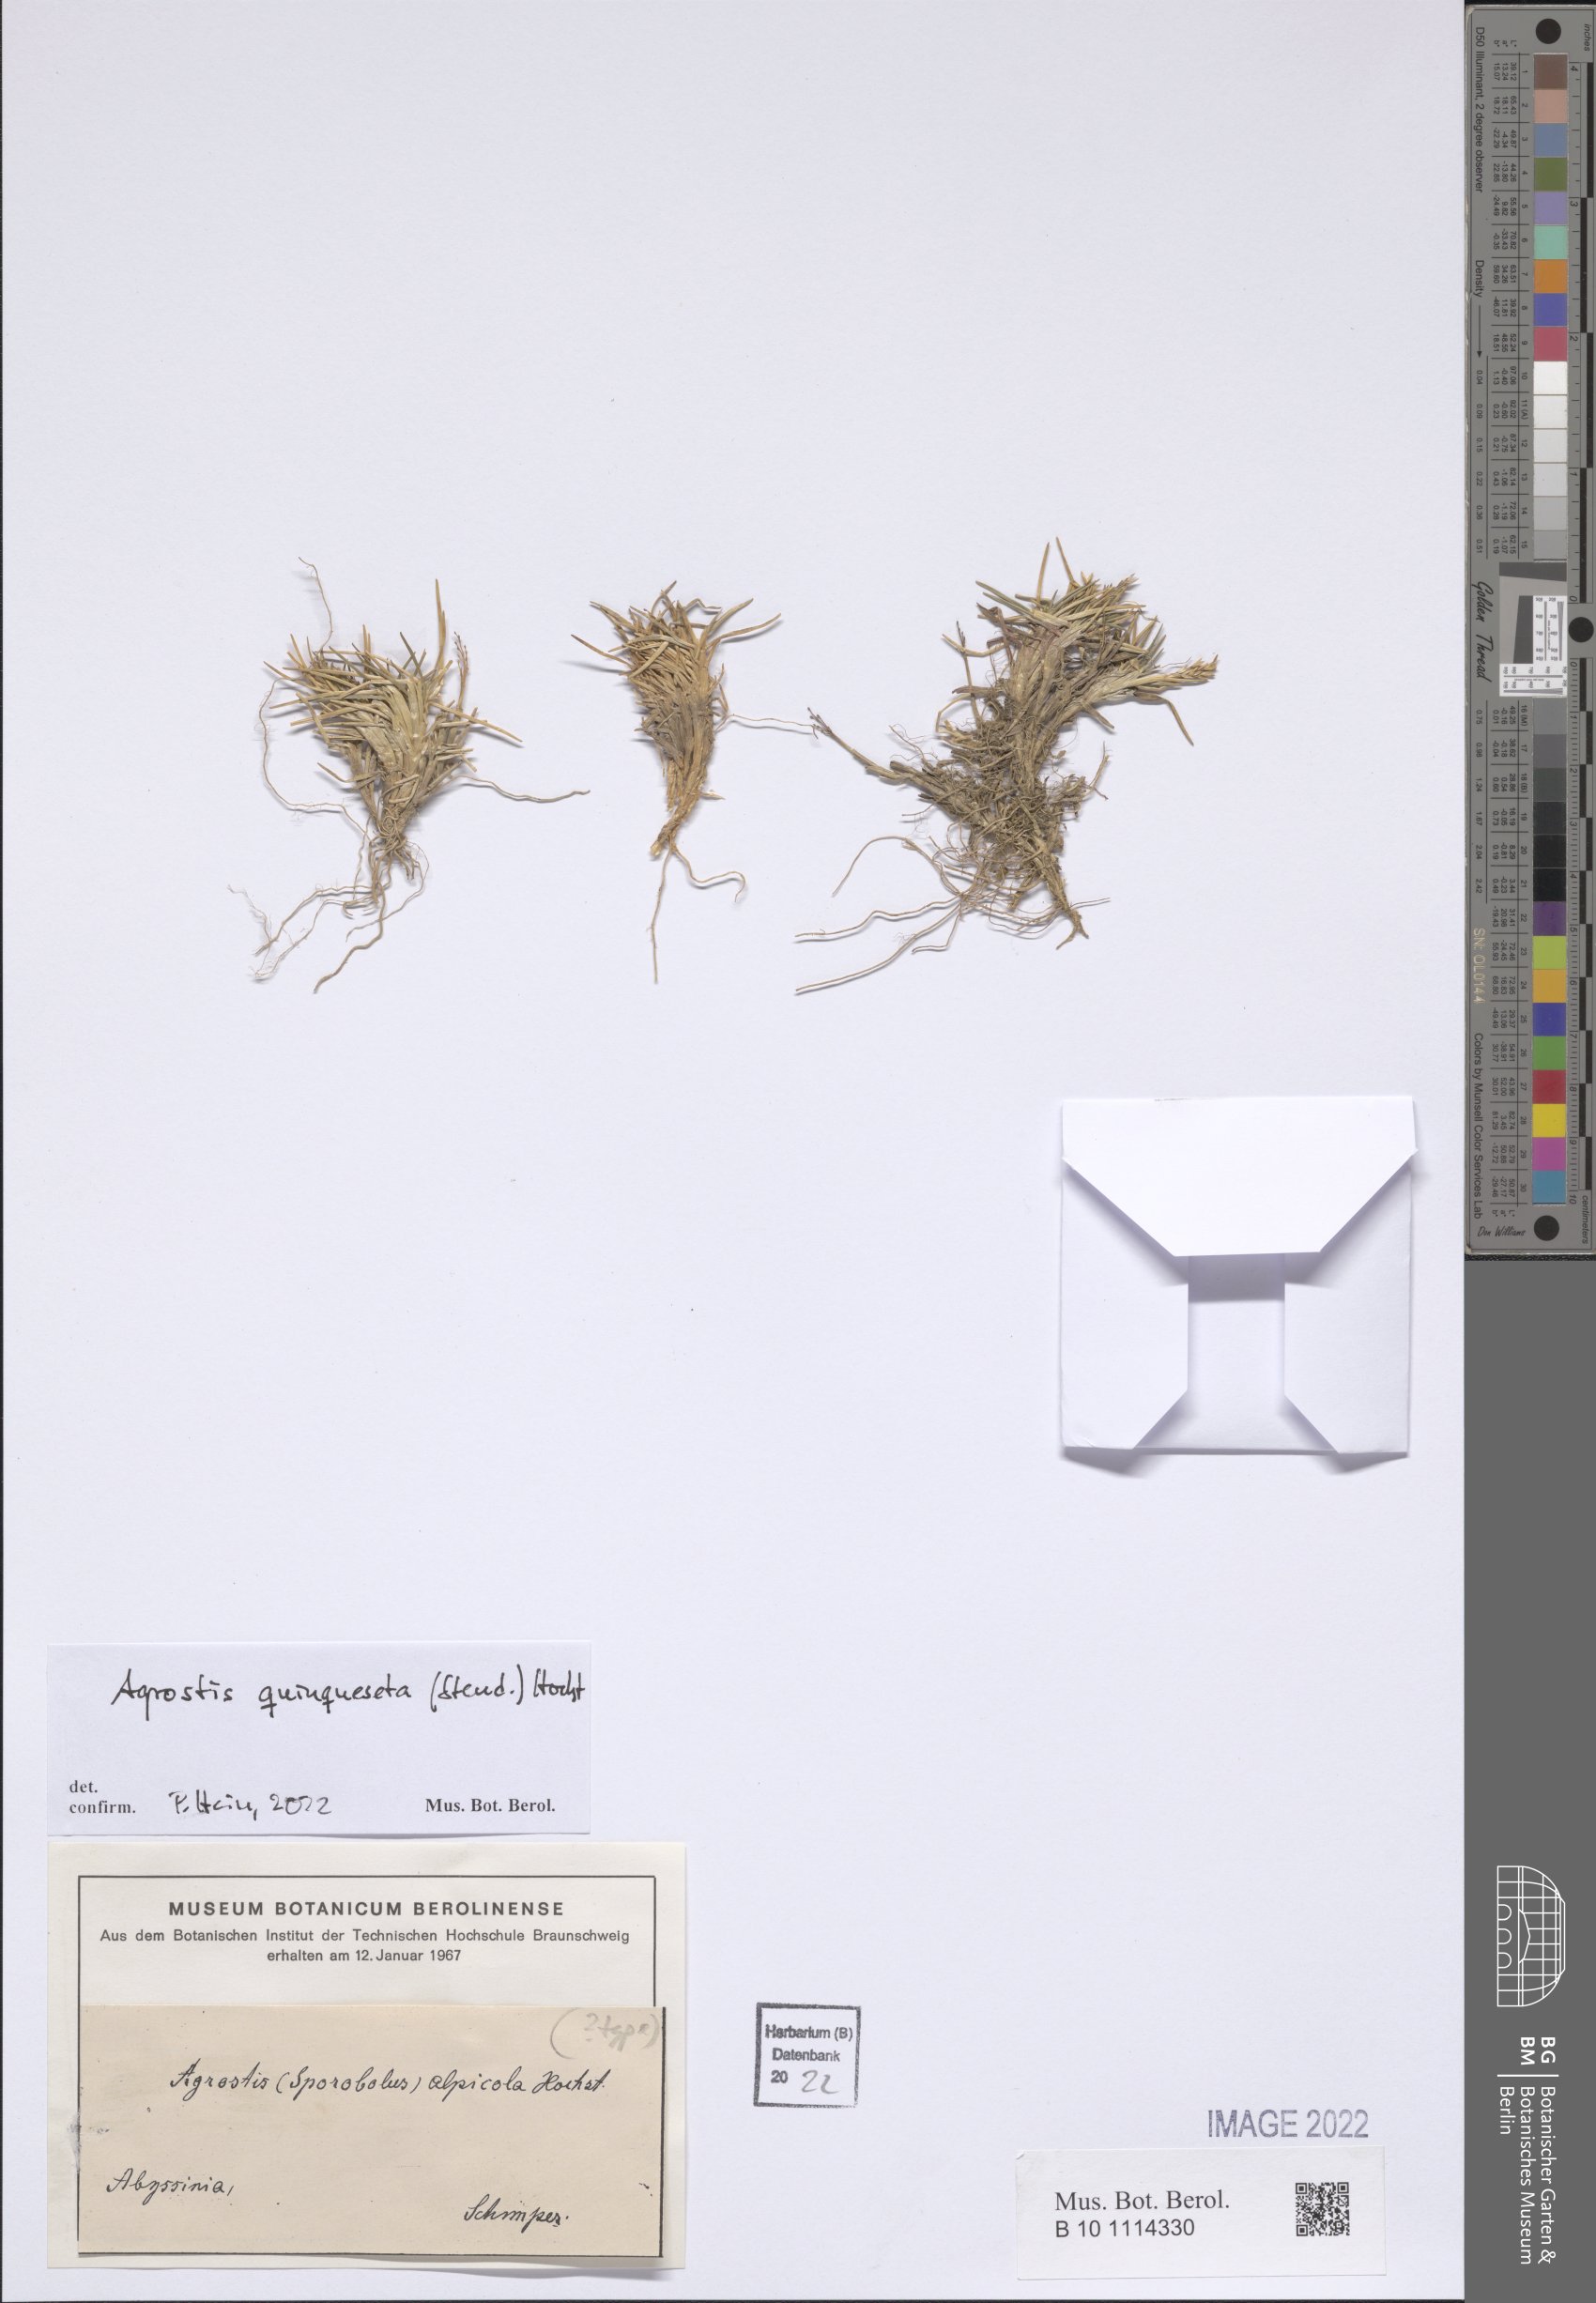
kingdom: Plantae
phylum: Tracheophyta
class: Liliopsida
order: Poales
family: Poaceae
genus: Agrostis
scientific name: Agrostis quinqueseta
